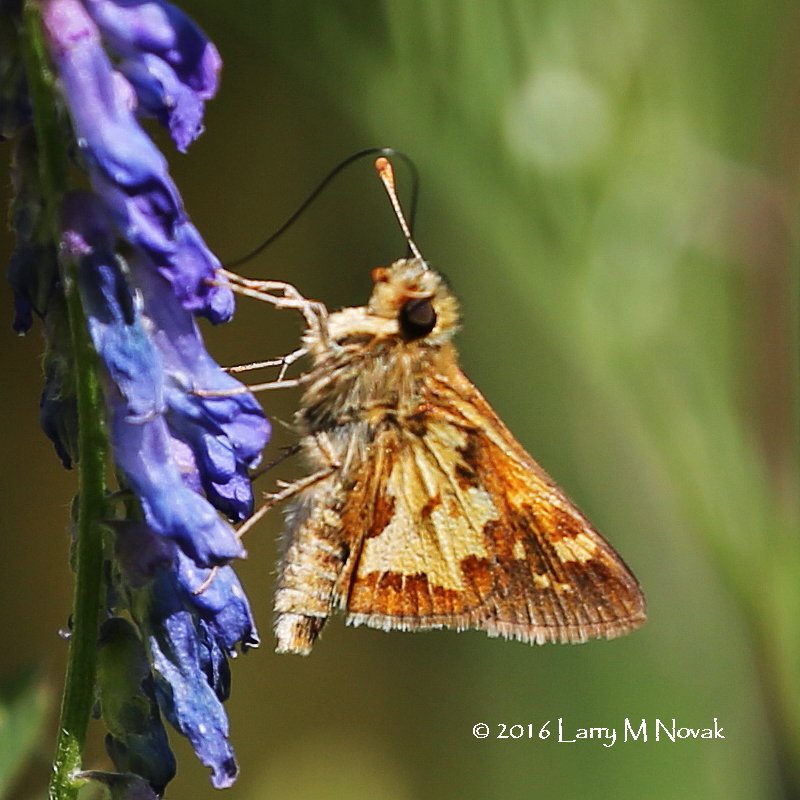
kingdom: Animalia
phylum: Arthropoda
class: Insecta
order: Lepidoptera
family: Hesperiidae
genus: Polites
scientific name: Polites coras
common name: Peck's Skipper
